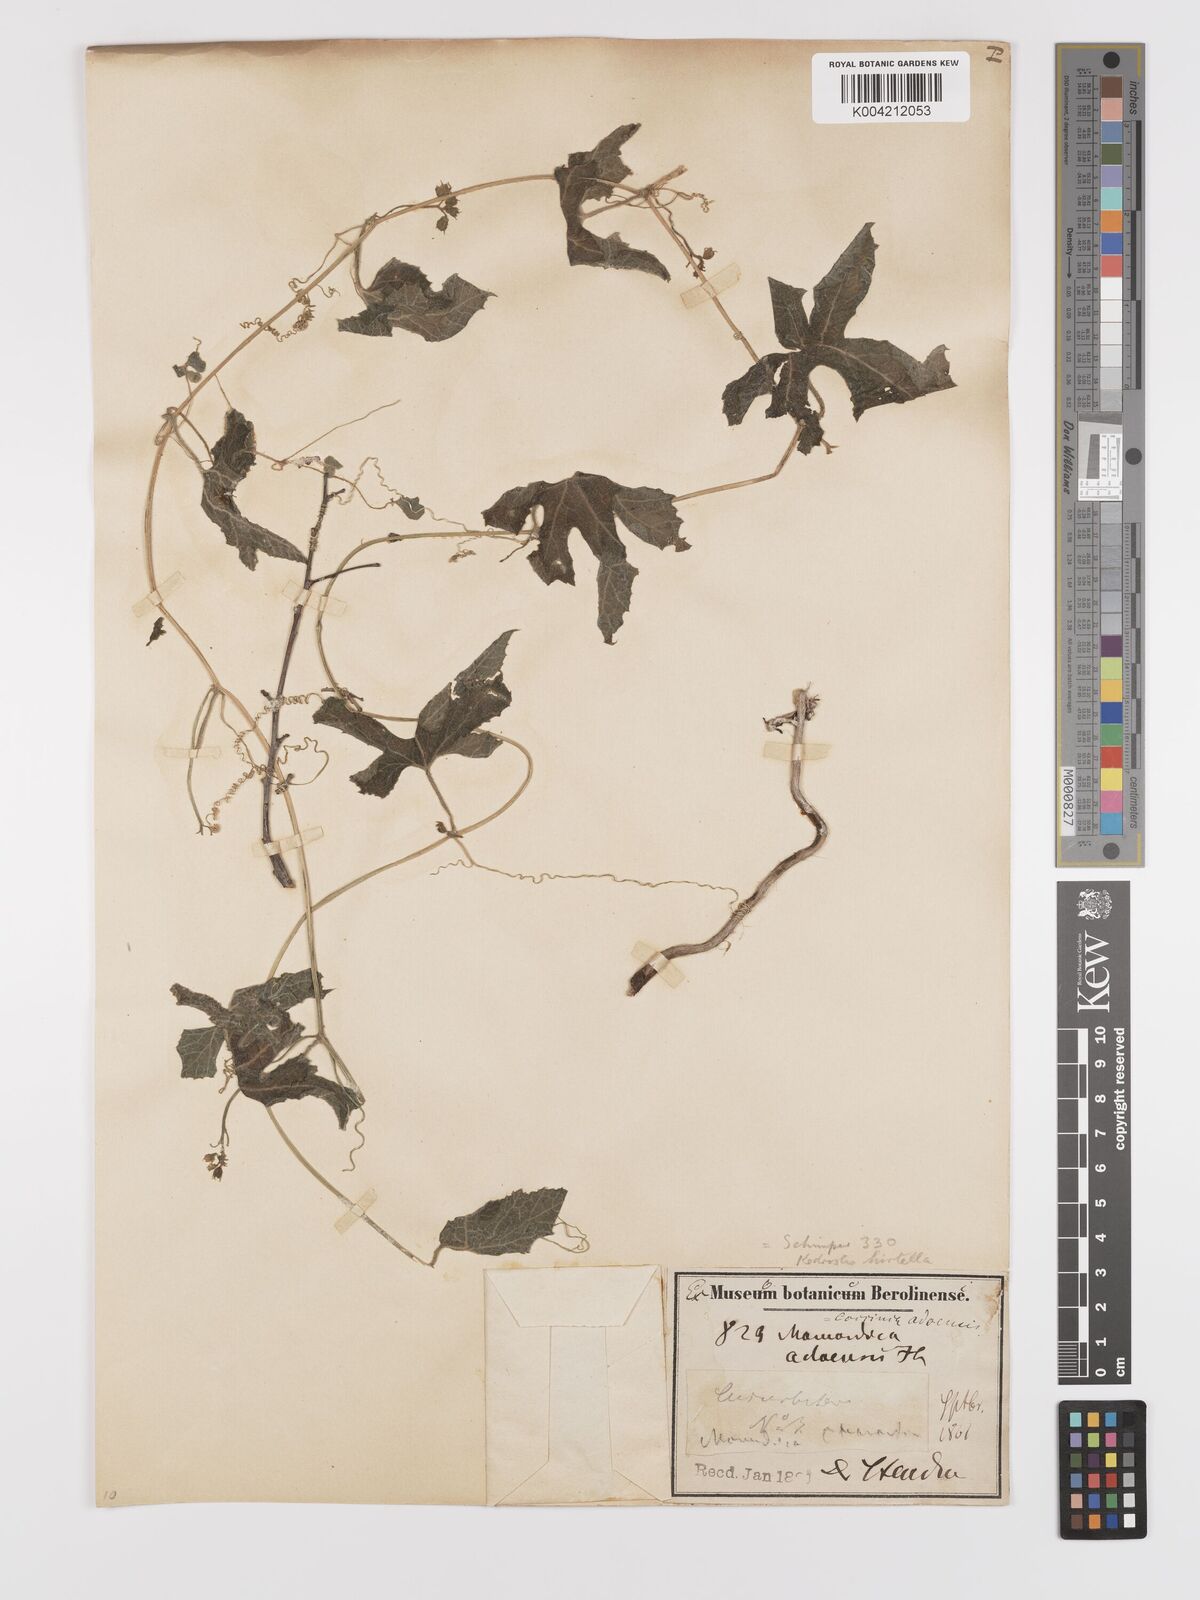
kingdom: Plantae
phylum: Tracheophyta
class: Magnoliopsida
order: Cucurbitales
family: Cucurbitaceae
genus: Kedrostis
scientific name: Kedrostis leloja
